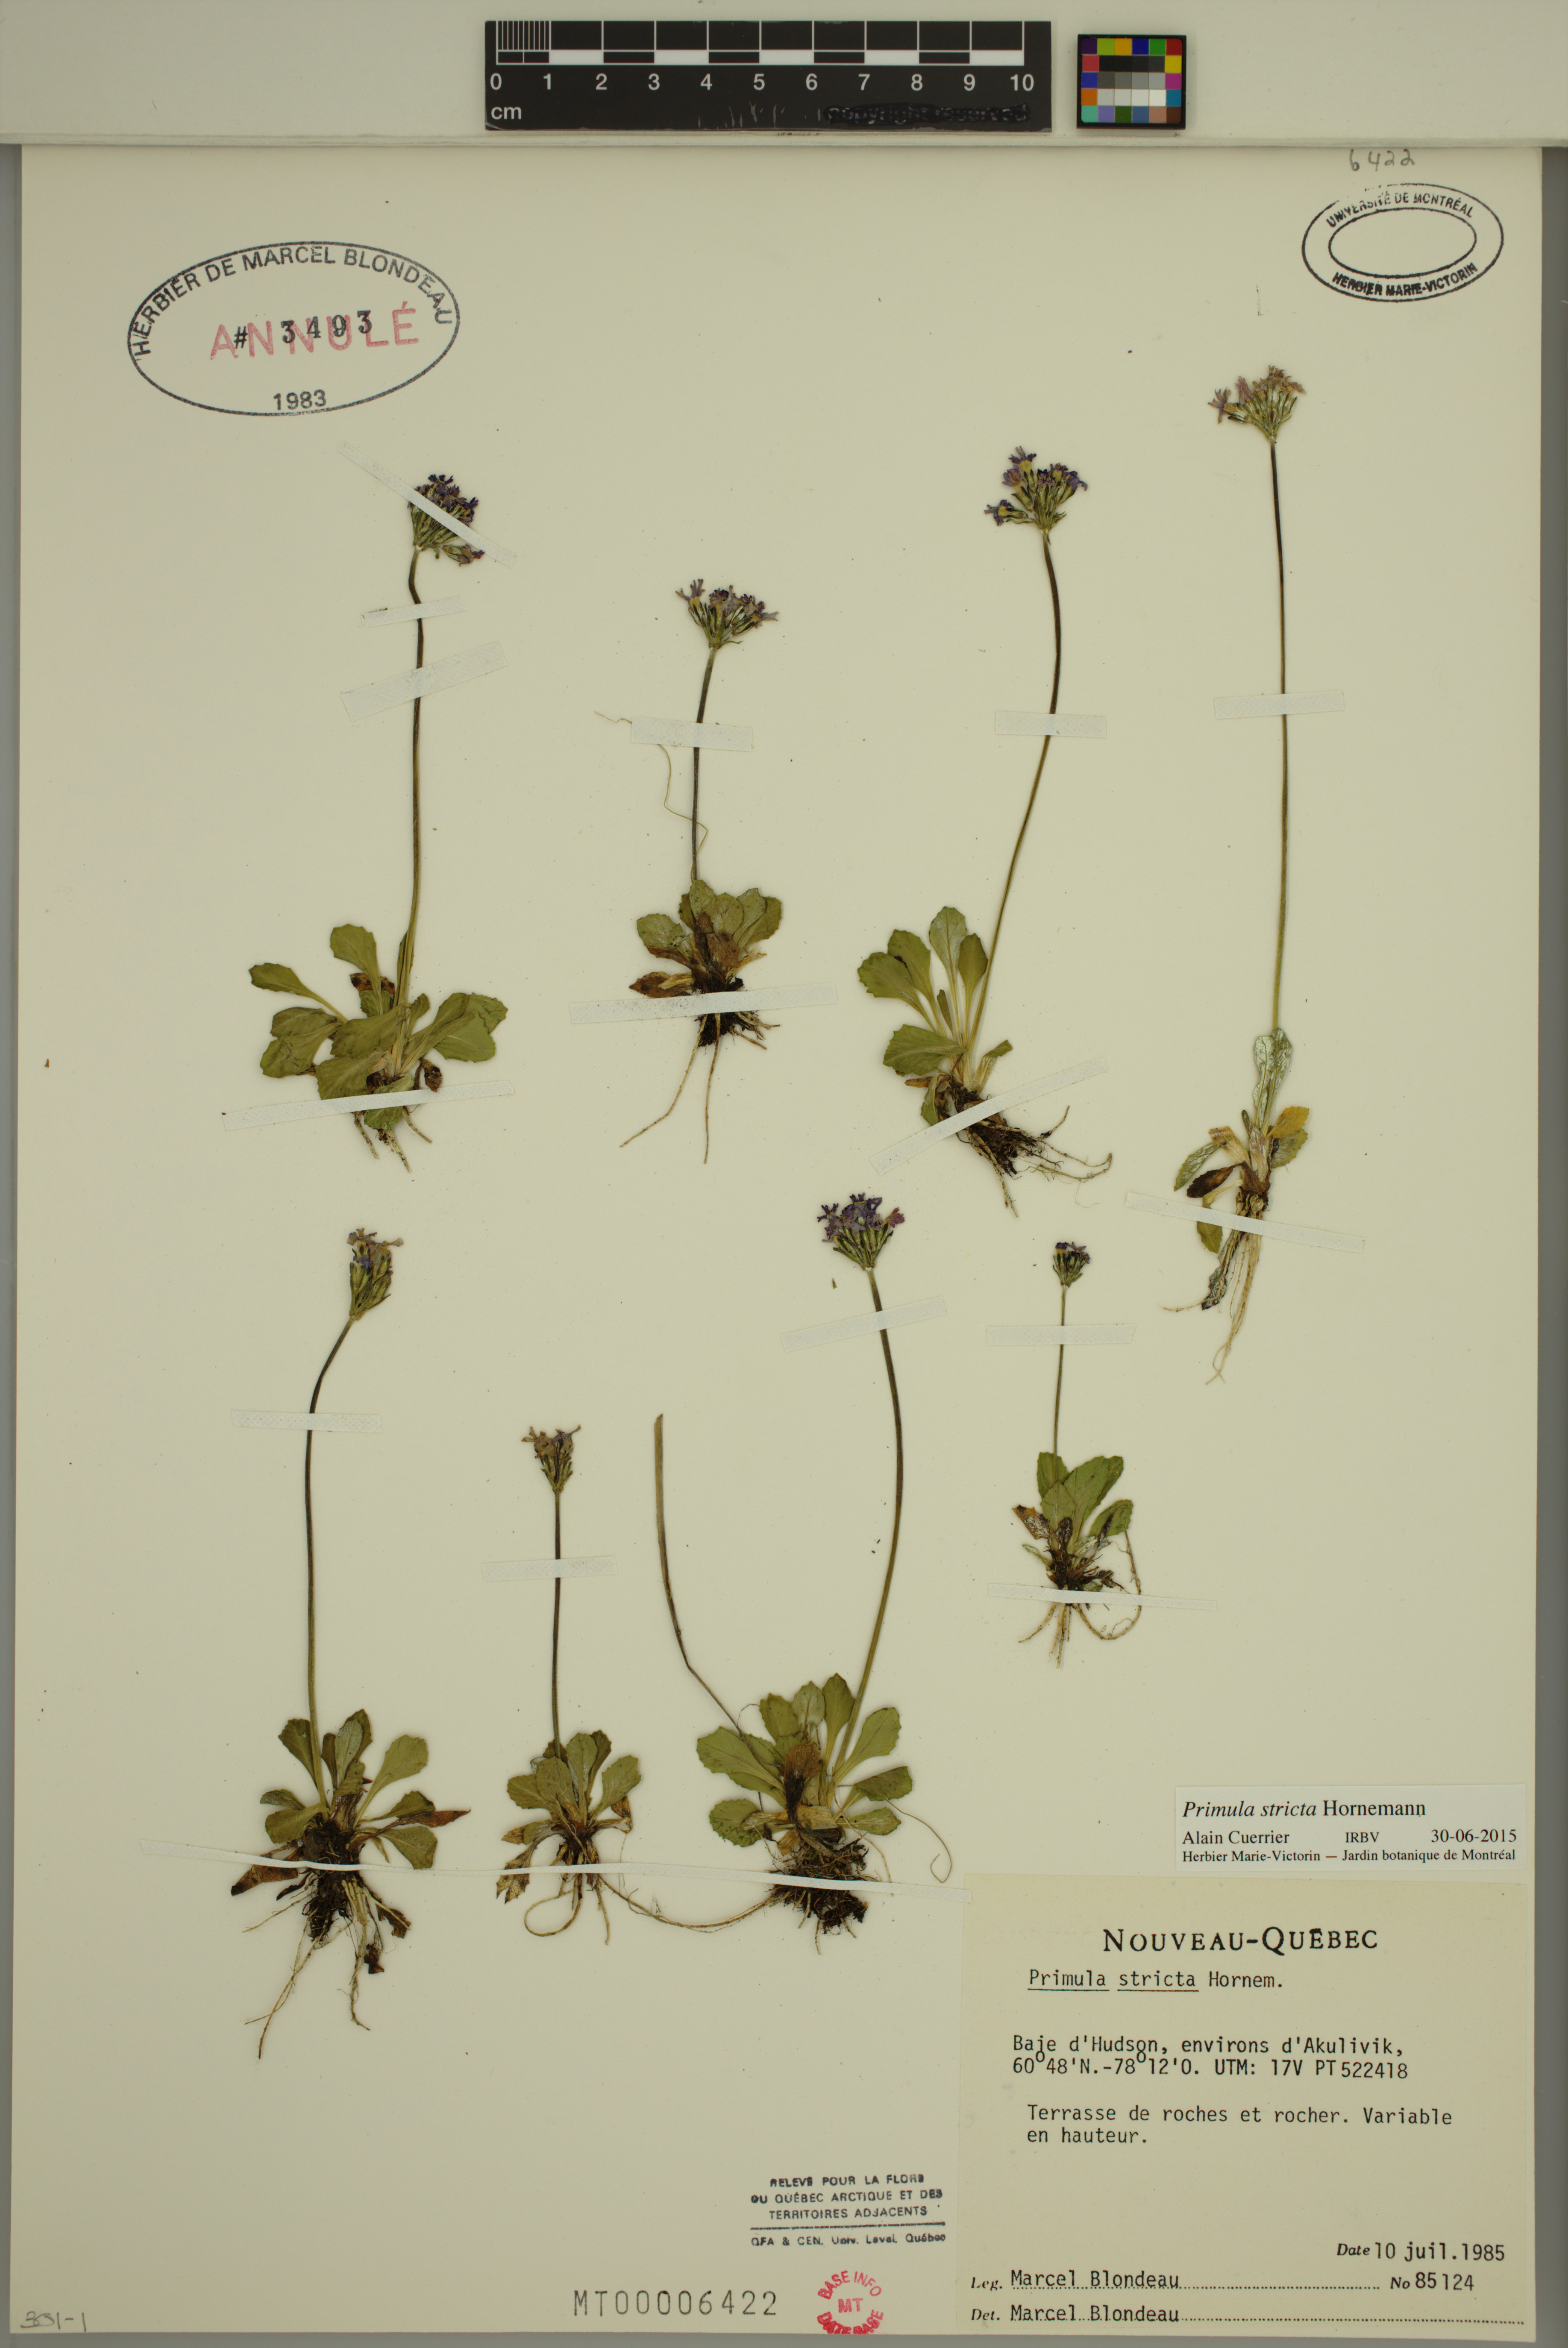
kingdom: Plantae
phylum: Tracheophyta
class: Magnoliopsida
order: Ericales
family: Primulaceae
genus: Primula
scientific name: Primula stricta
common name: Coastal primrose
